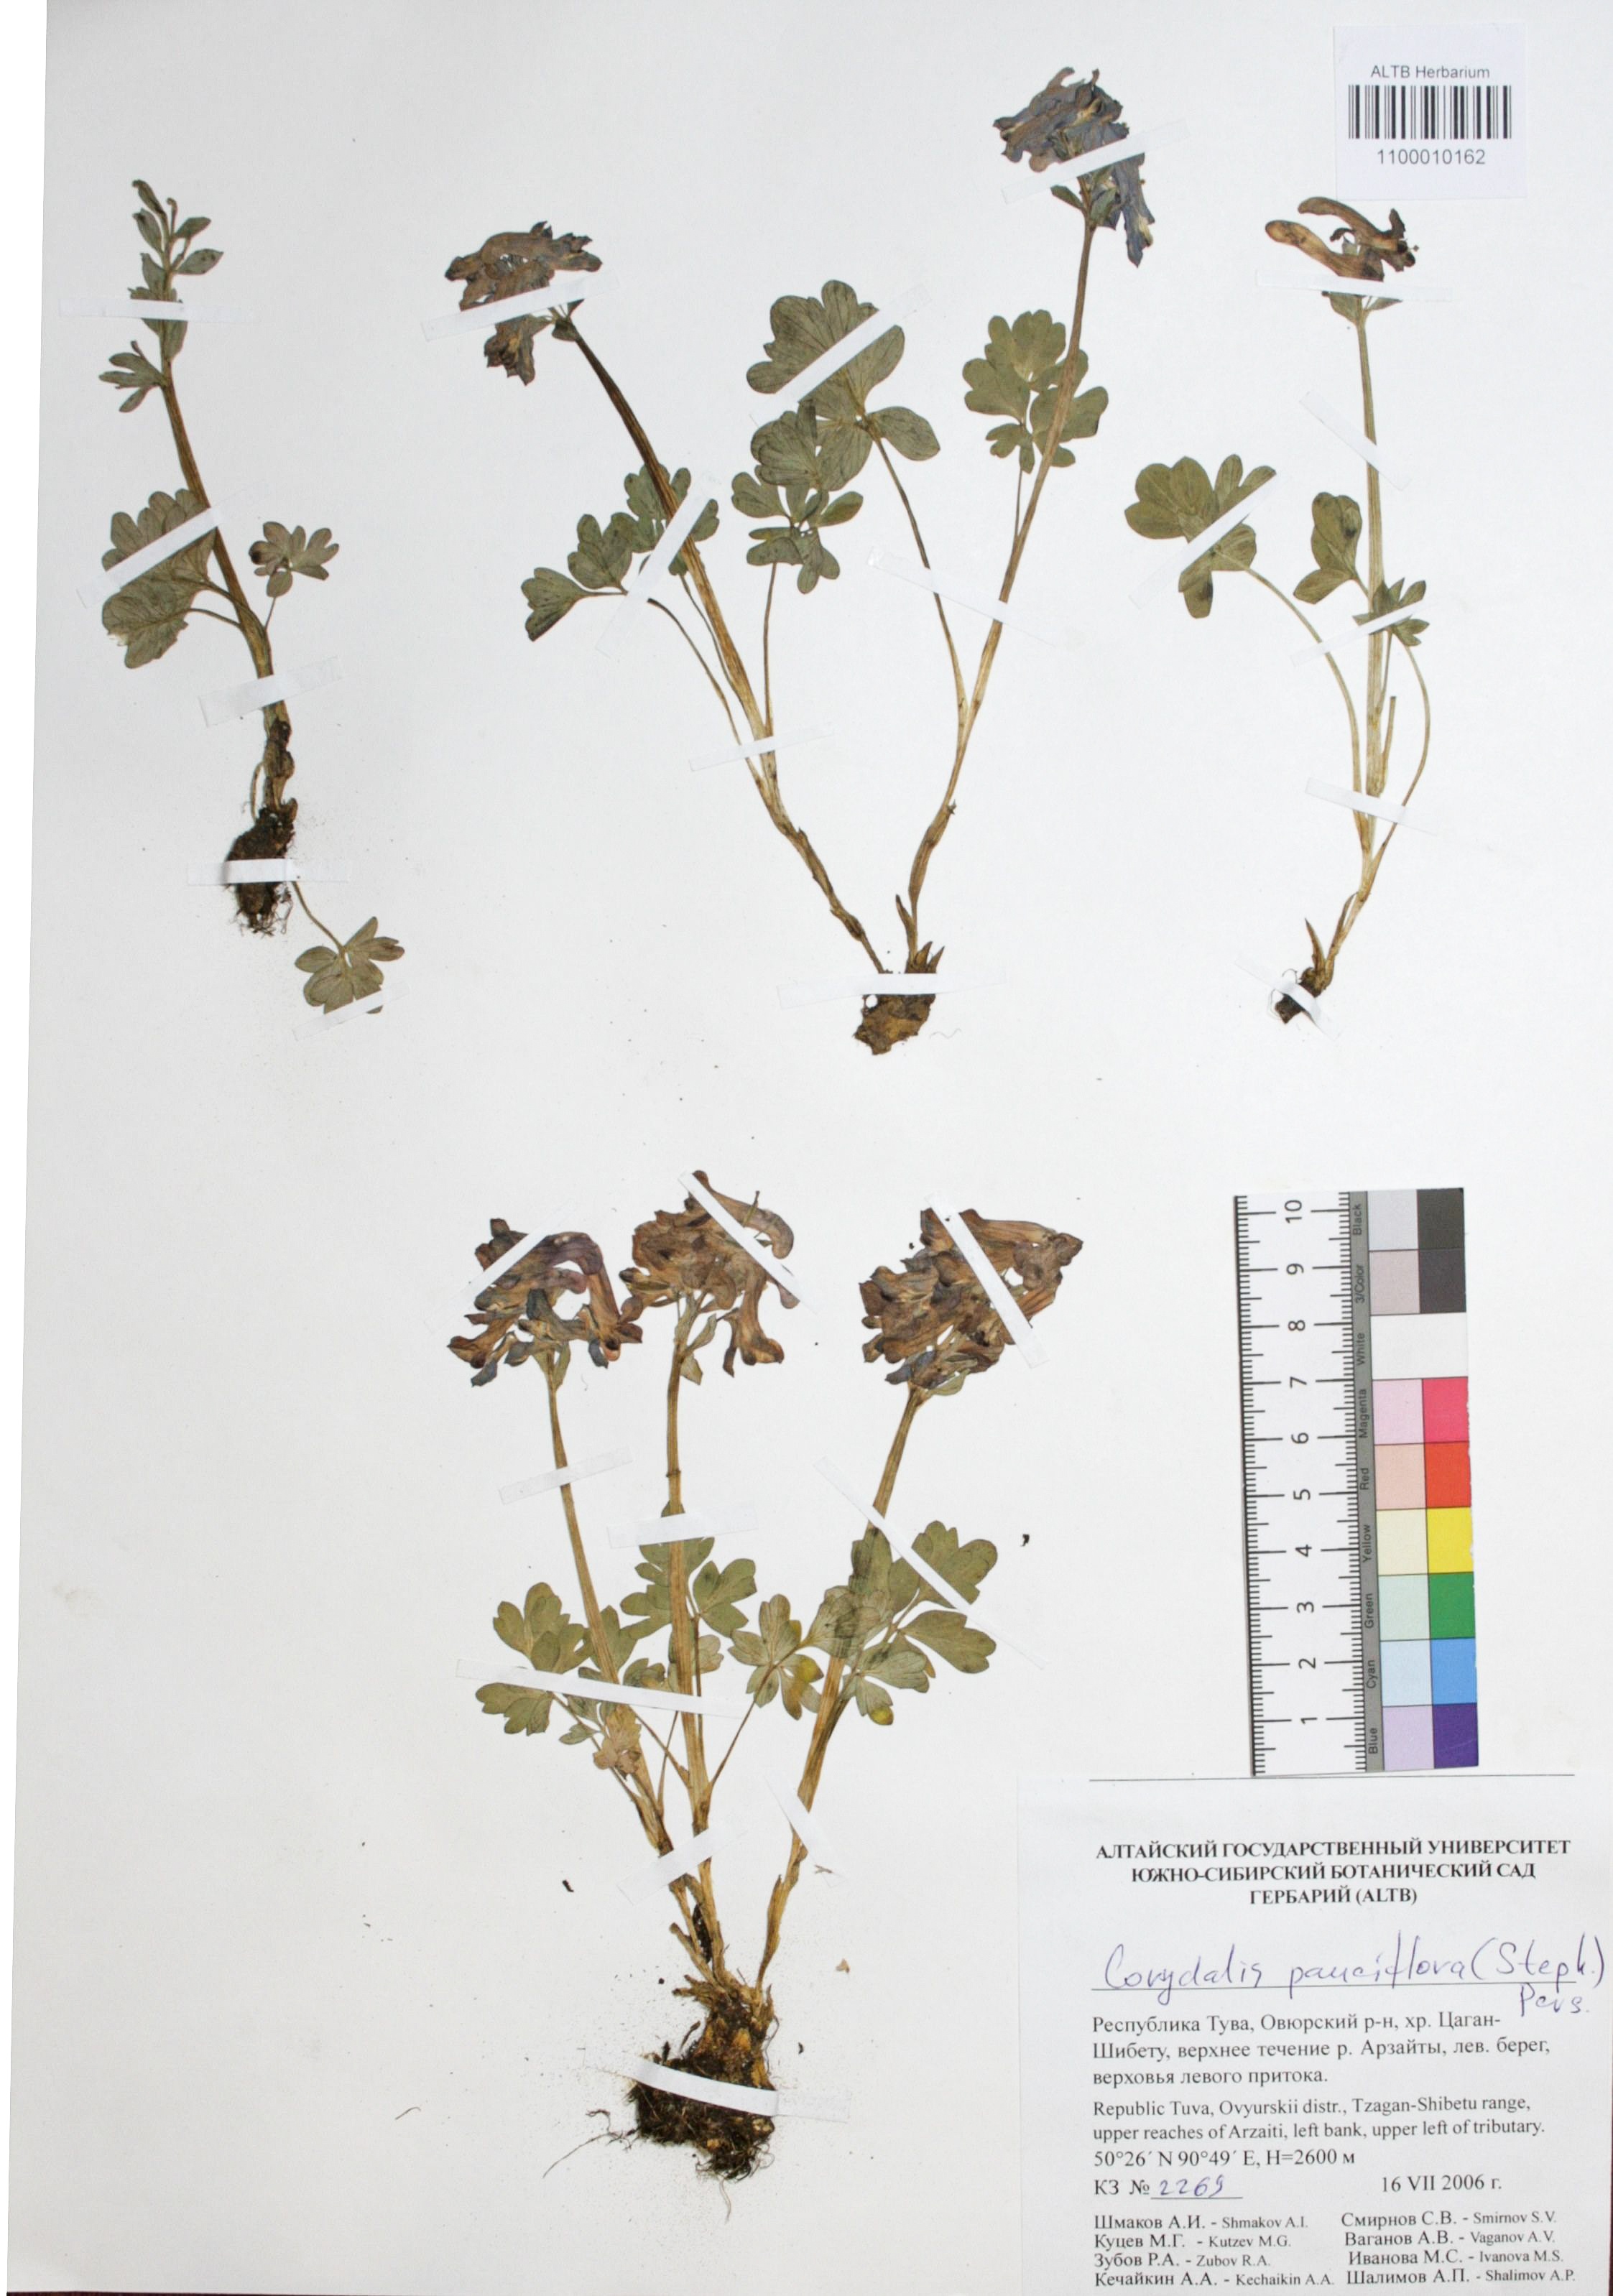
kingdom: Plantae
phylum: Tracheophyta
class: Magnoliopsida
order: Ranunculales
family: Papaveraceae
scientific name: Papaveraceae
